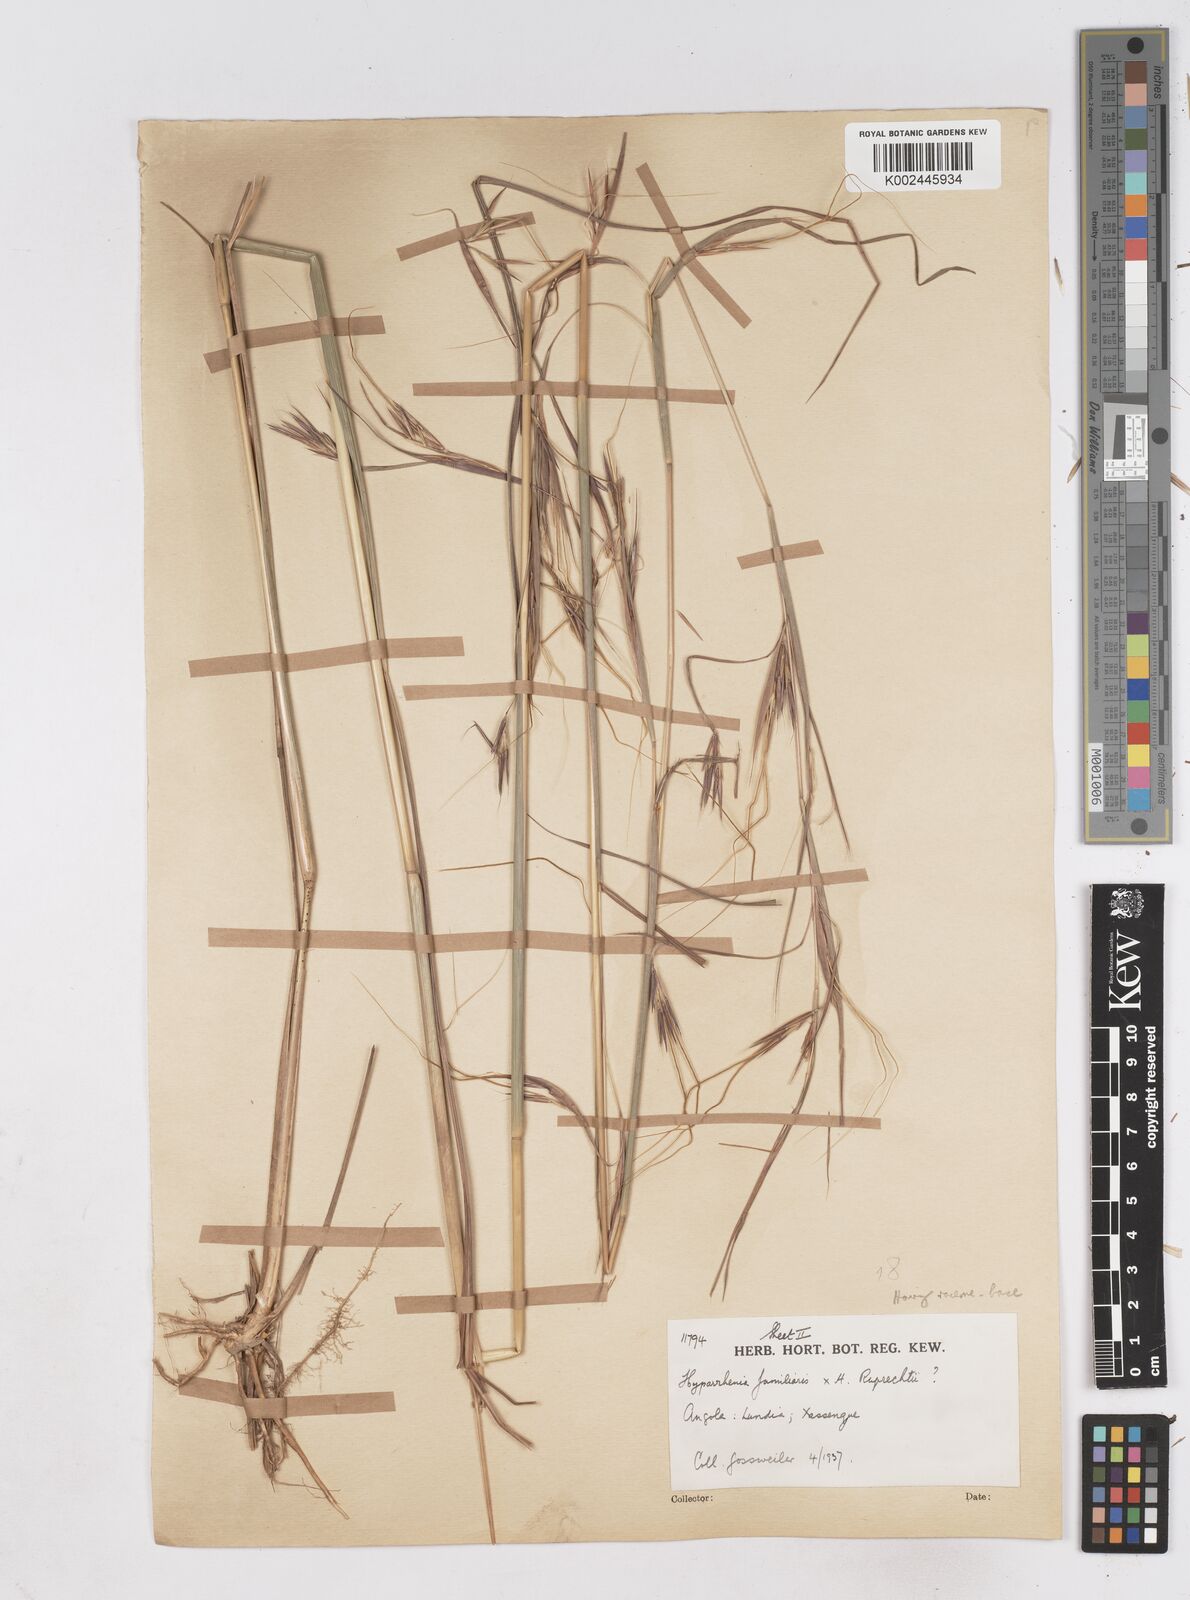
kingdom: Plantae
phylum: Tracheophyta
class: Liliopsida
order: Poales
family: Poaceae
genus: Hyperthelia
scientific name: Hyperthelia dissoluta
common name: Yellow thatching grass
